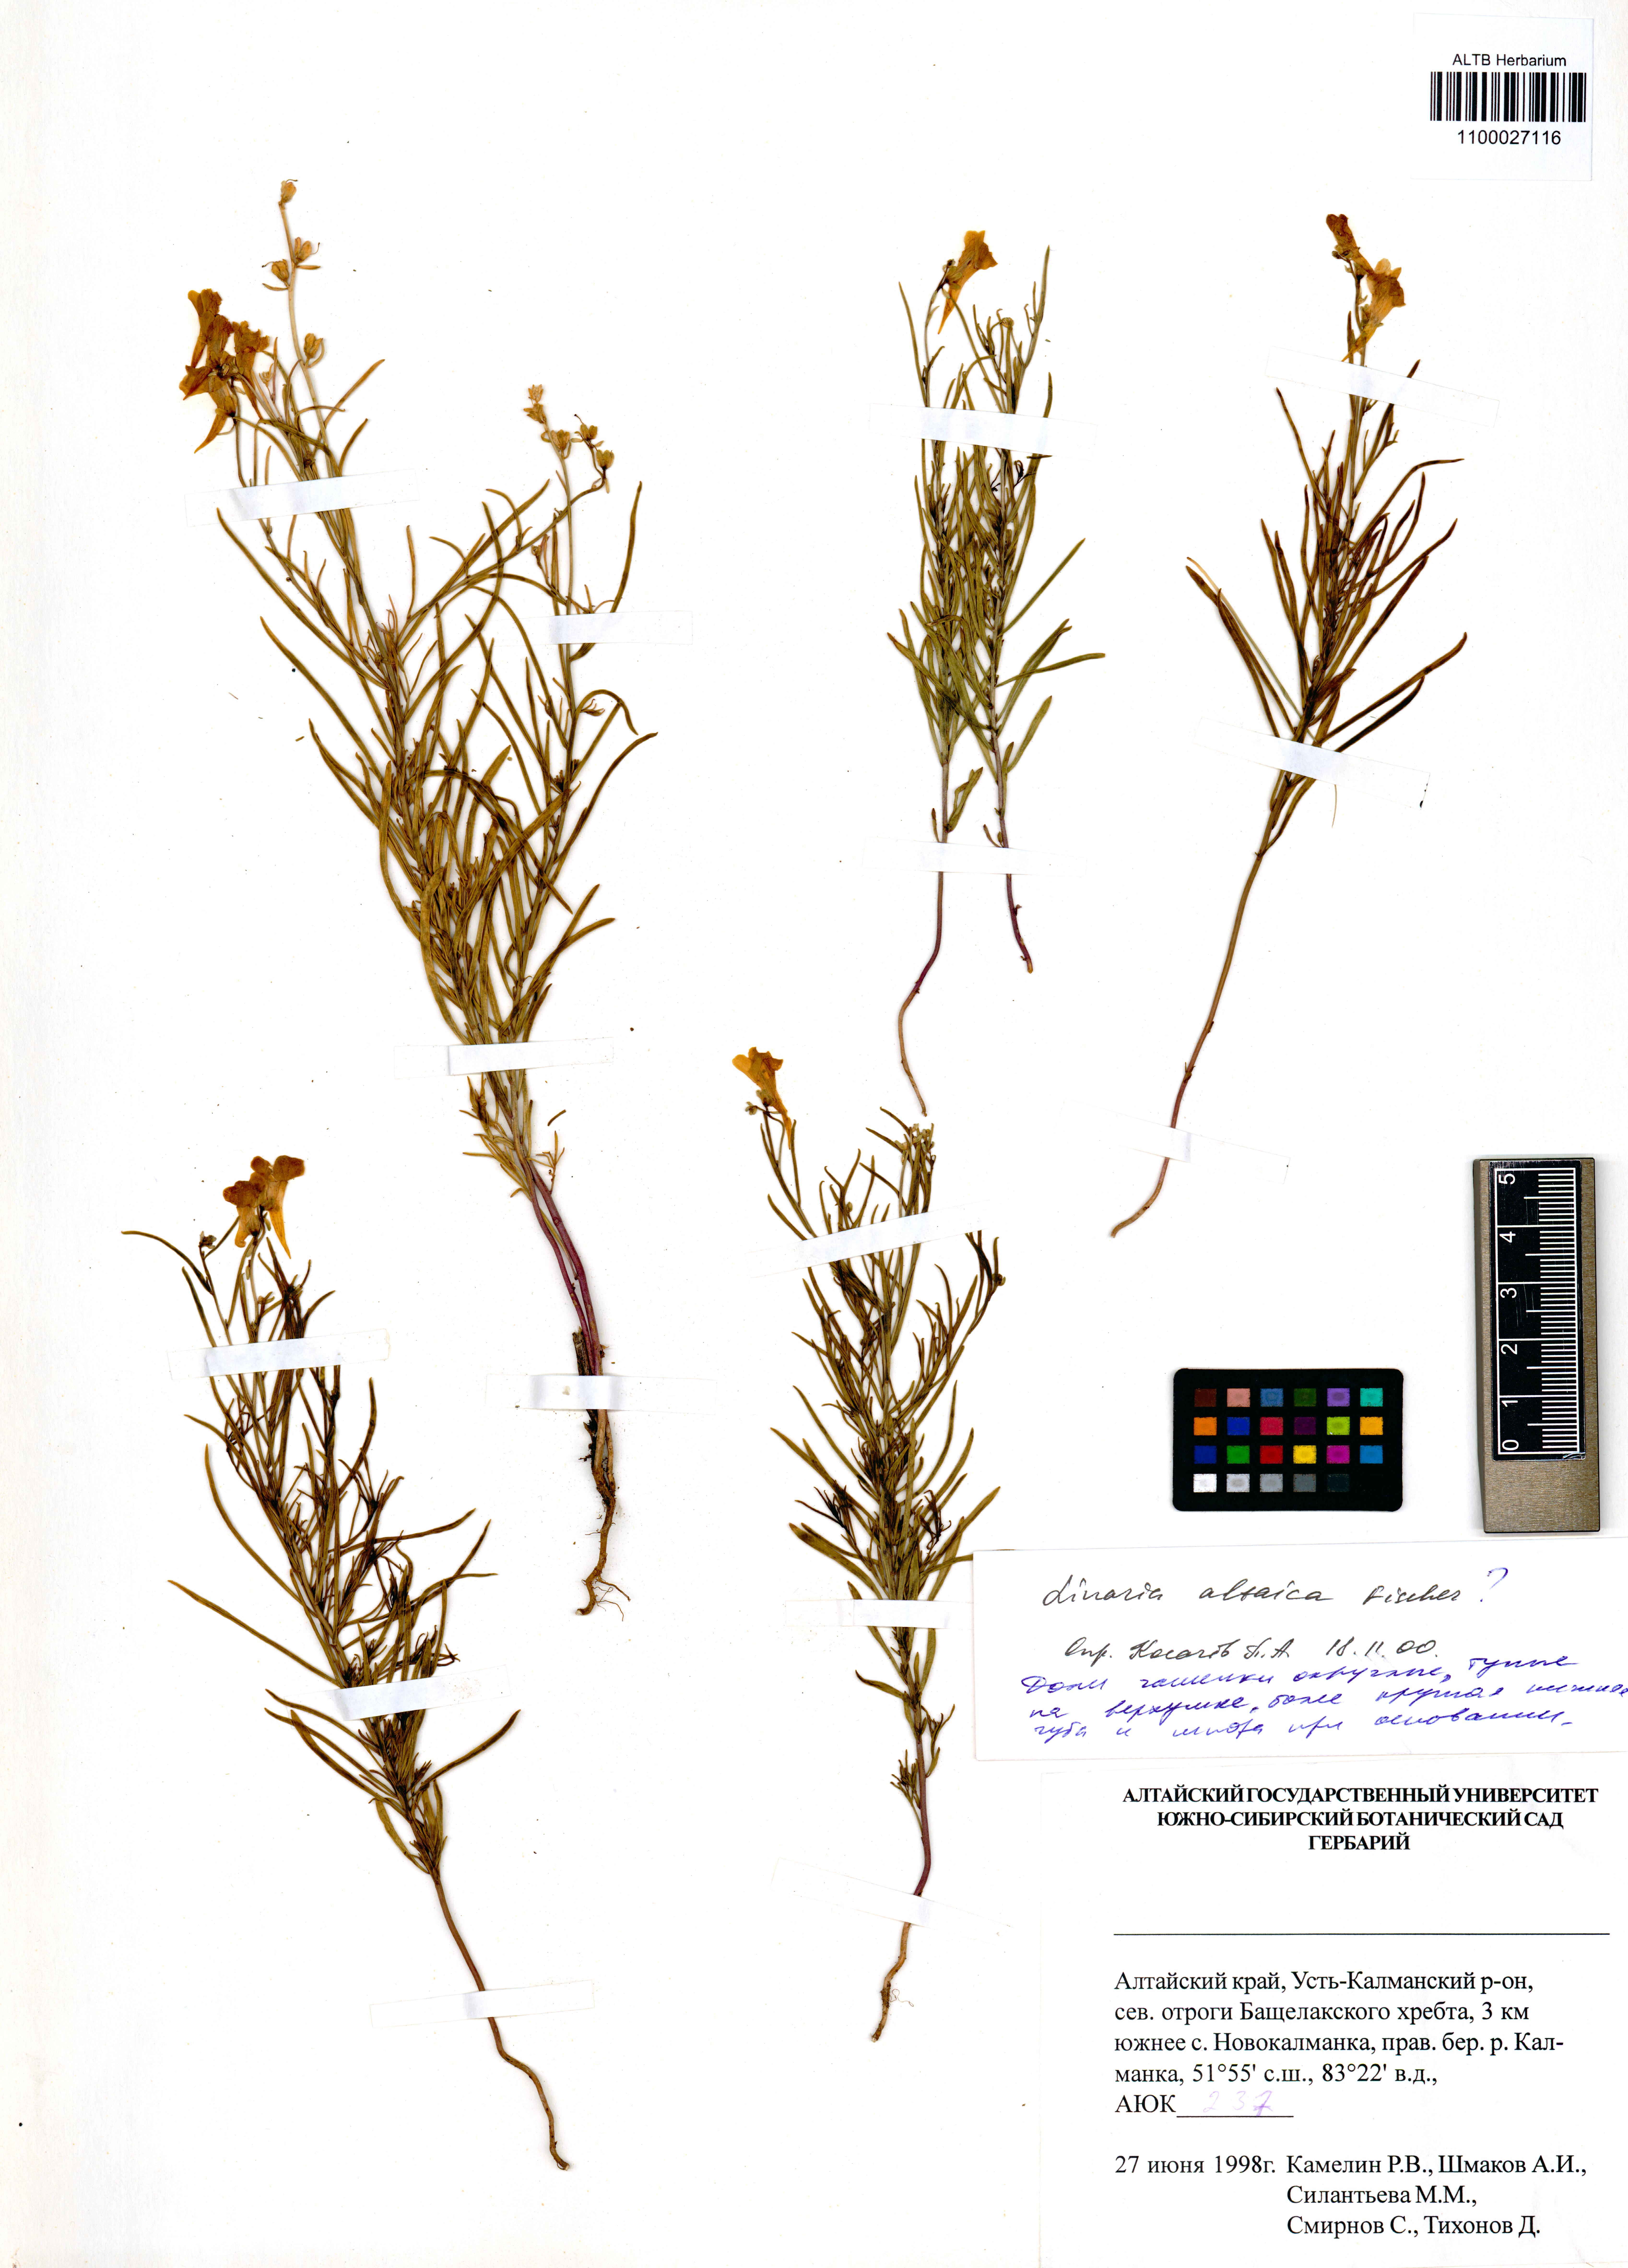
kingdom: Plantae
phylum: Tracheophyta
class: Magnoliopsida
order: Lamiales
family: Plantaginaceae
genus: Linaria
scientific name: Linaria altaica
